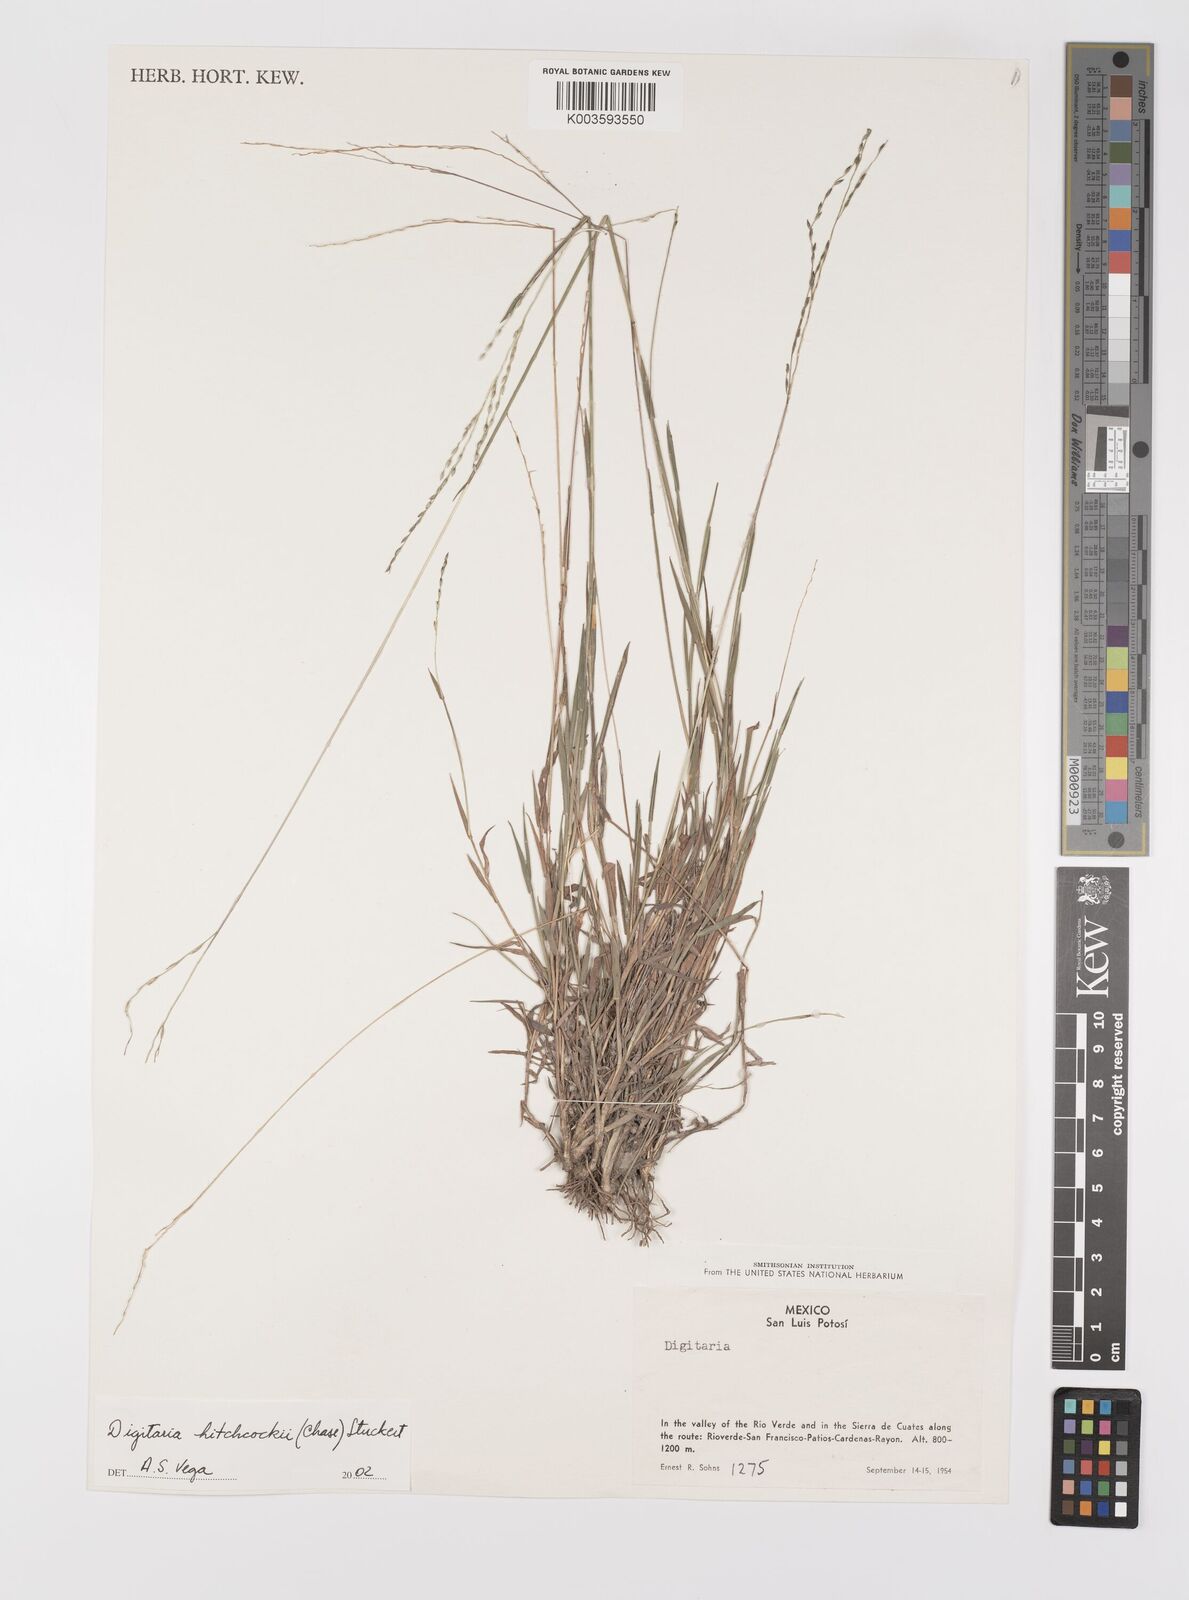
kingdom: Plantae
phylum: Tracheophyta
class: Liliopsida
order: Poales
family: Poaceae
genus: Digitaria
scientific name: Digitaria hitchcockii
